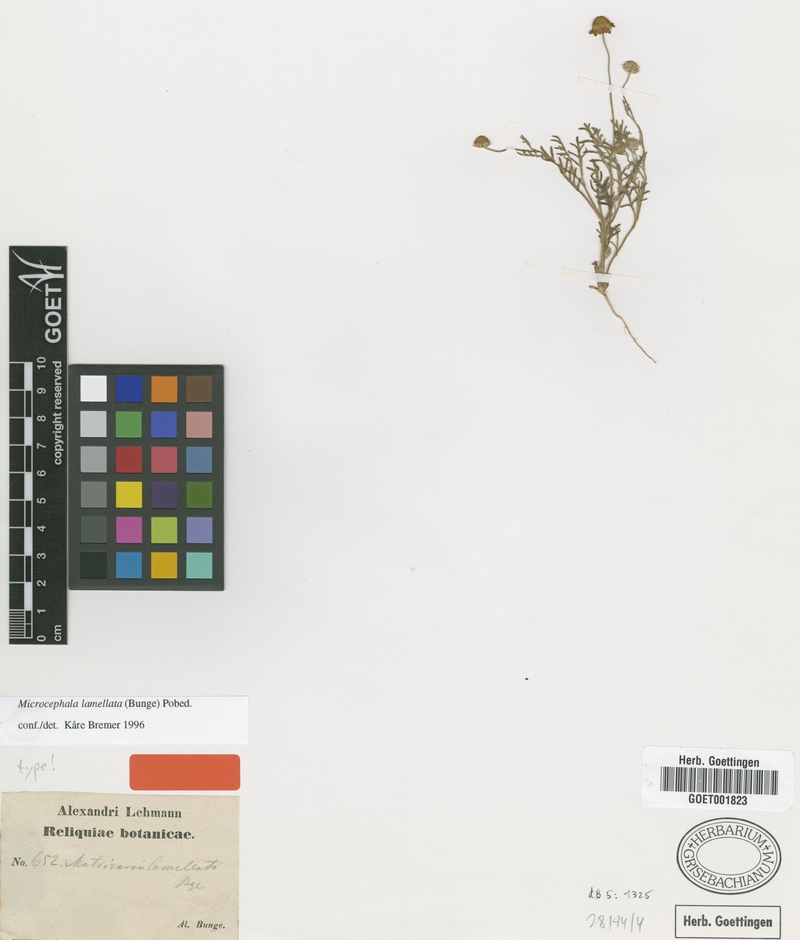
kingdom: Plantae
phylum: Tracheophyta
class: Magnoliopsida
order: Asterales
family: Asteraceae
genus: Microcephala
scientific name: Microcephala lamellata
